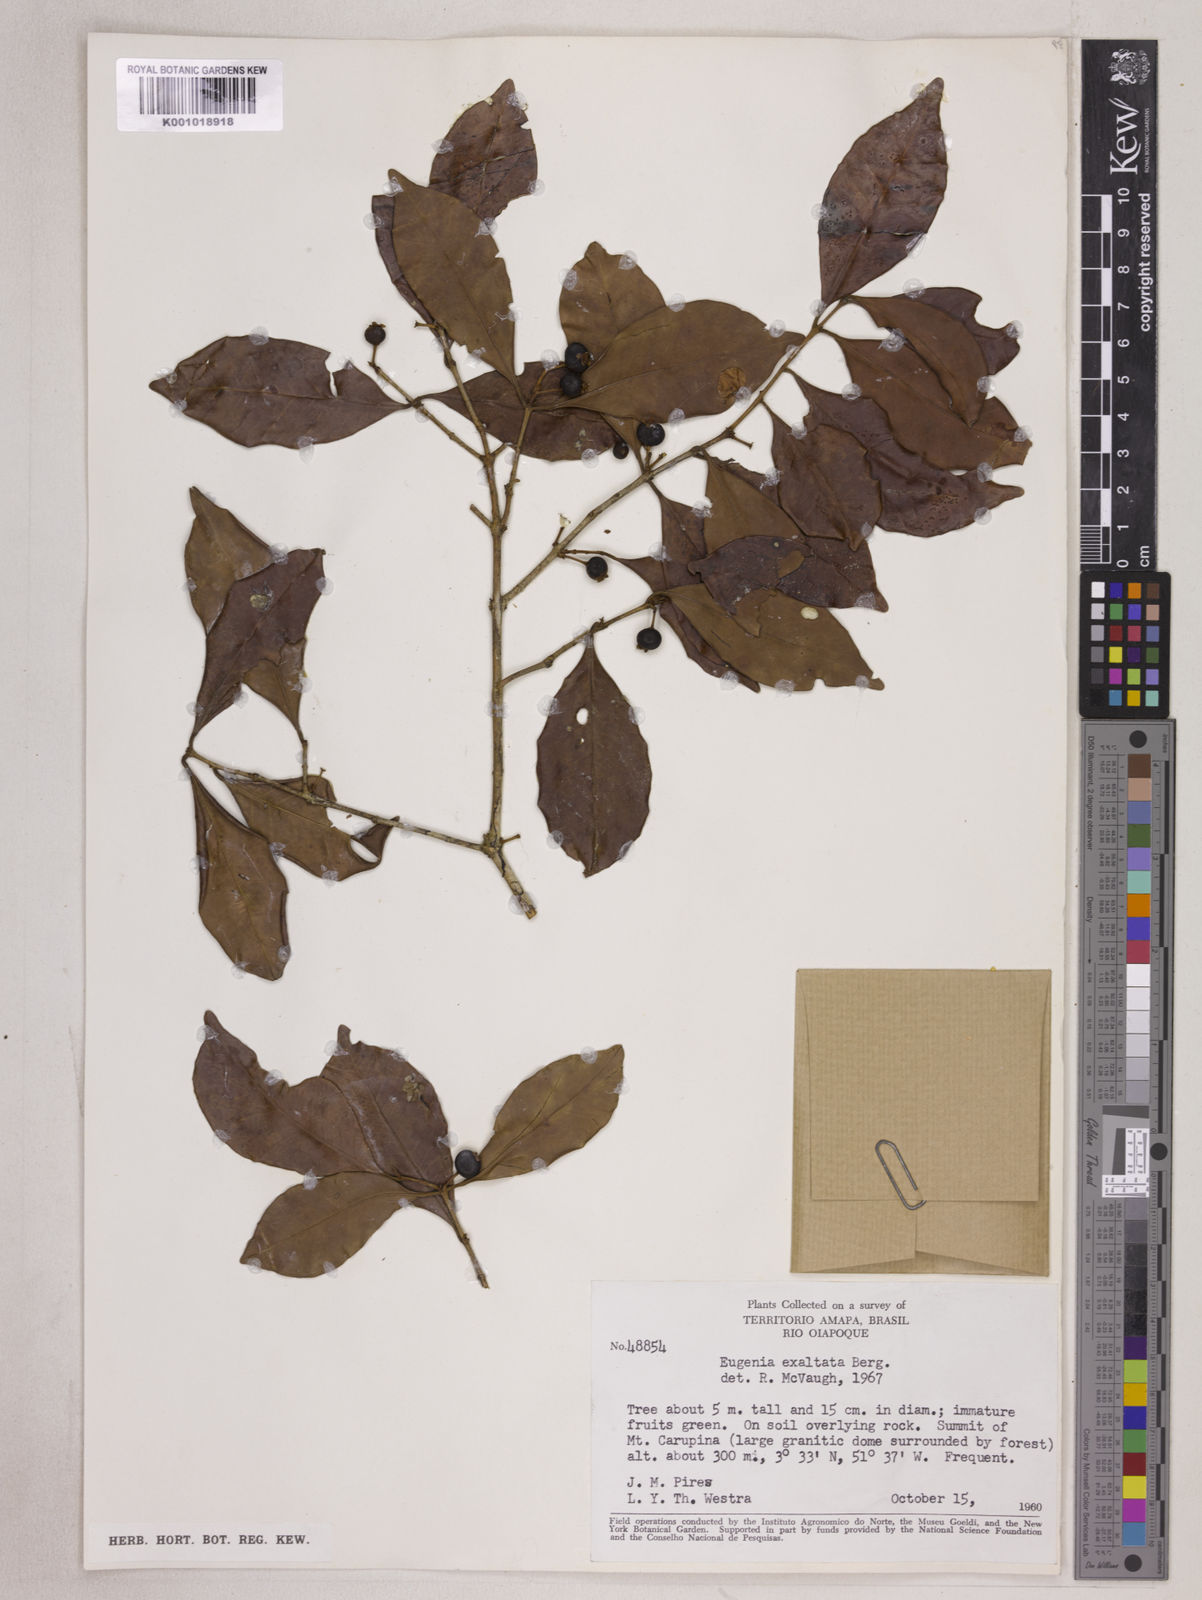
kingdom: Plantae
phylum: Tracheophyta
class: Magnoliopsida
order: Myrtales
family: Myrtaceae
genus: Eugenia
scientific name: Eugenia exaltata
